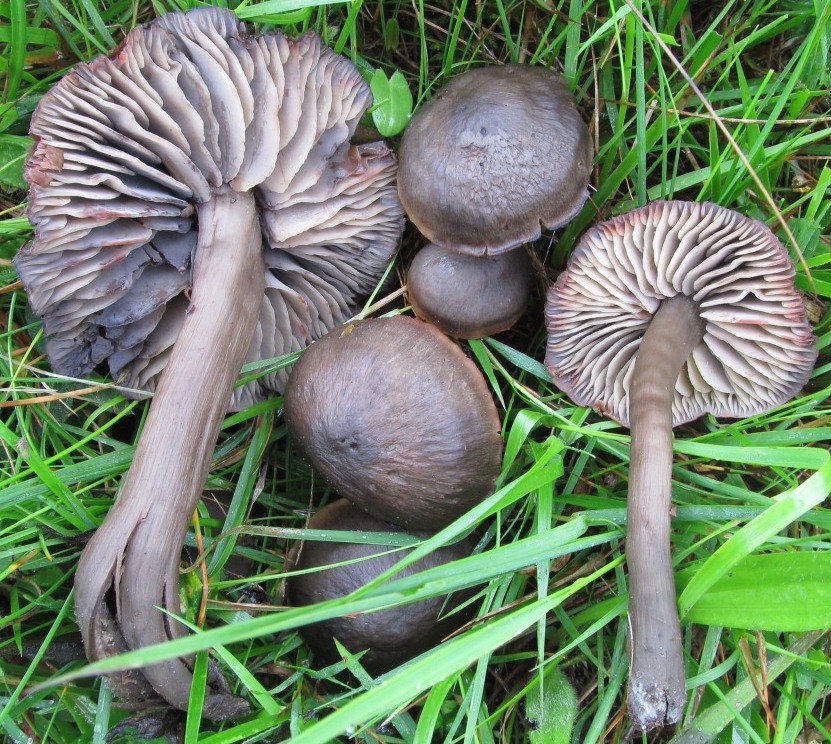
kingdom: Fungi
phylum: Basidiomycota
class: Agaricomycetes
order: Agaricales
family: Hygrophoraceae
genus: Neohygrocybe
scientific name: Neohygrocybe ovina
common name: rødmende vokshat
